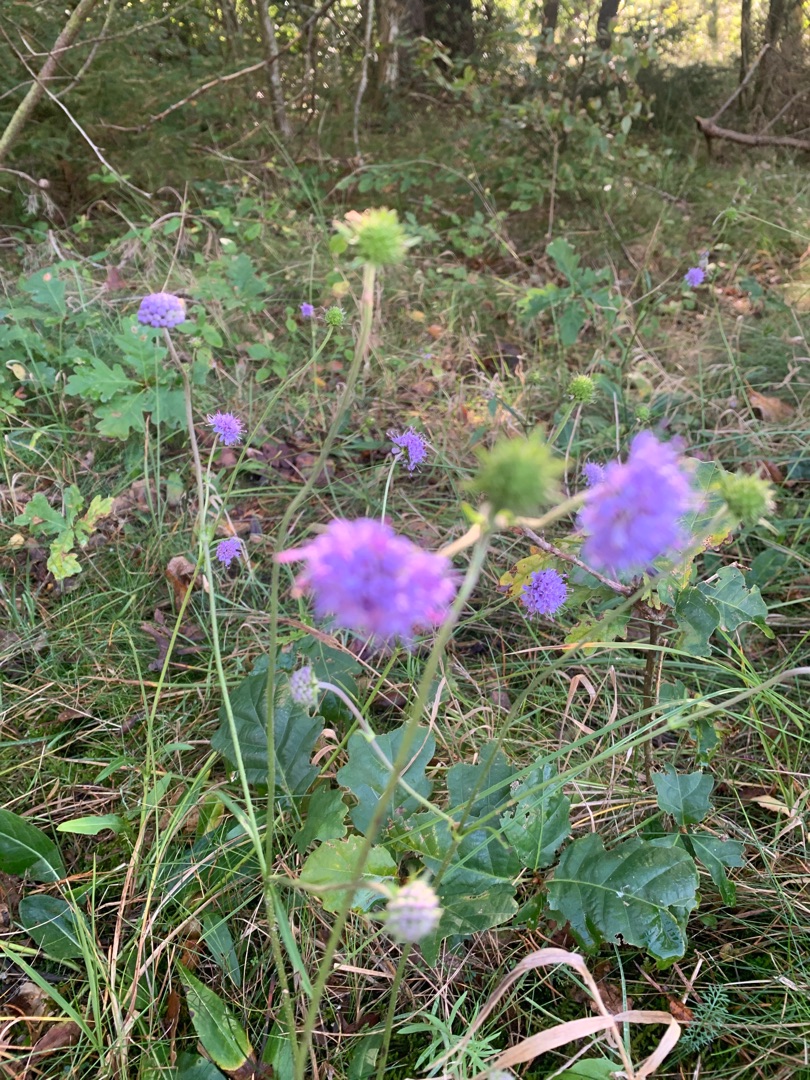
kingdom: Plantae
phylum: Tracheophyta
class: Magnoliopsida
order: Dipsacales
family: Caprifoliaceae
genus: Succisa
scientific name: Succisa pratensis
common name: Djævelsbid
